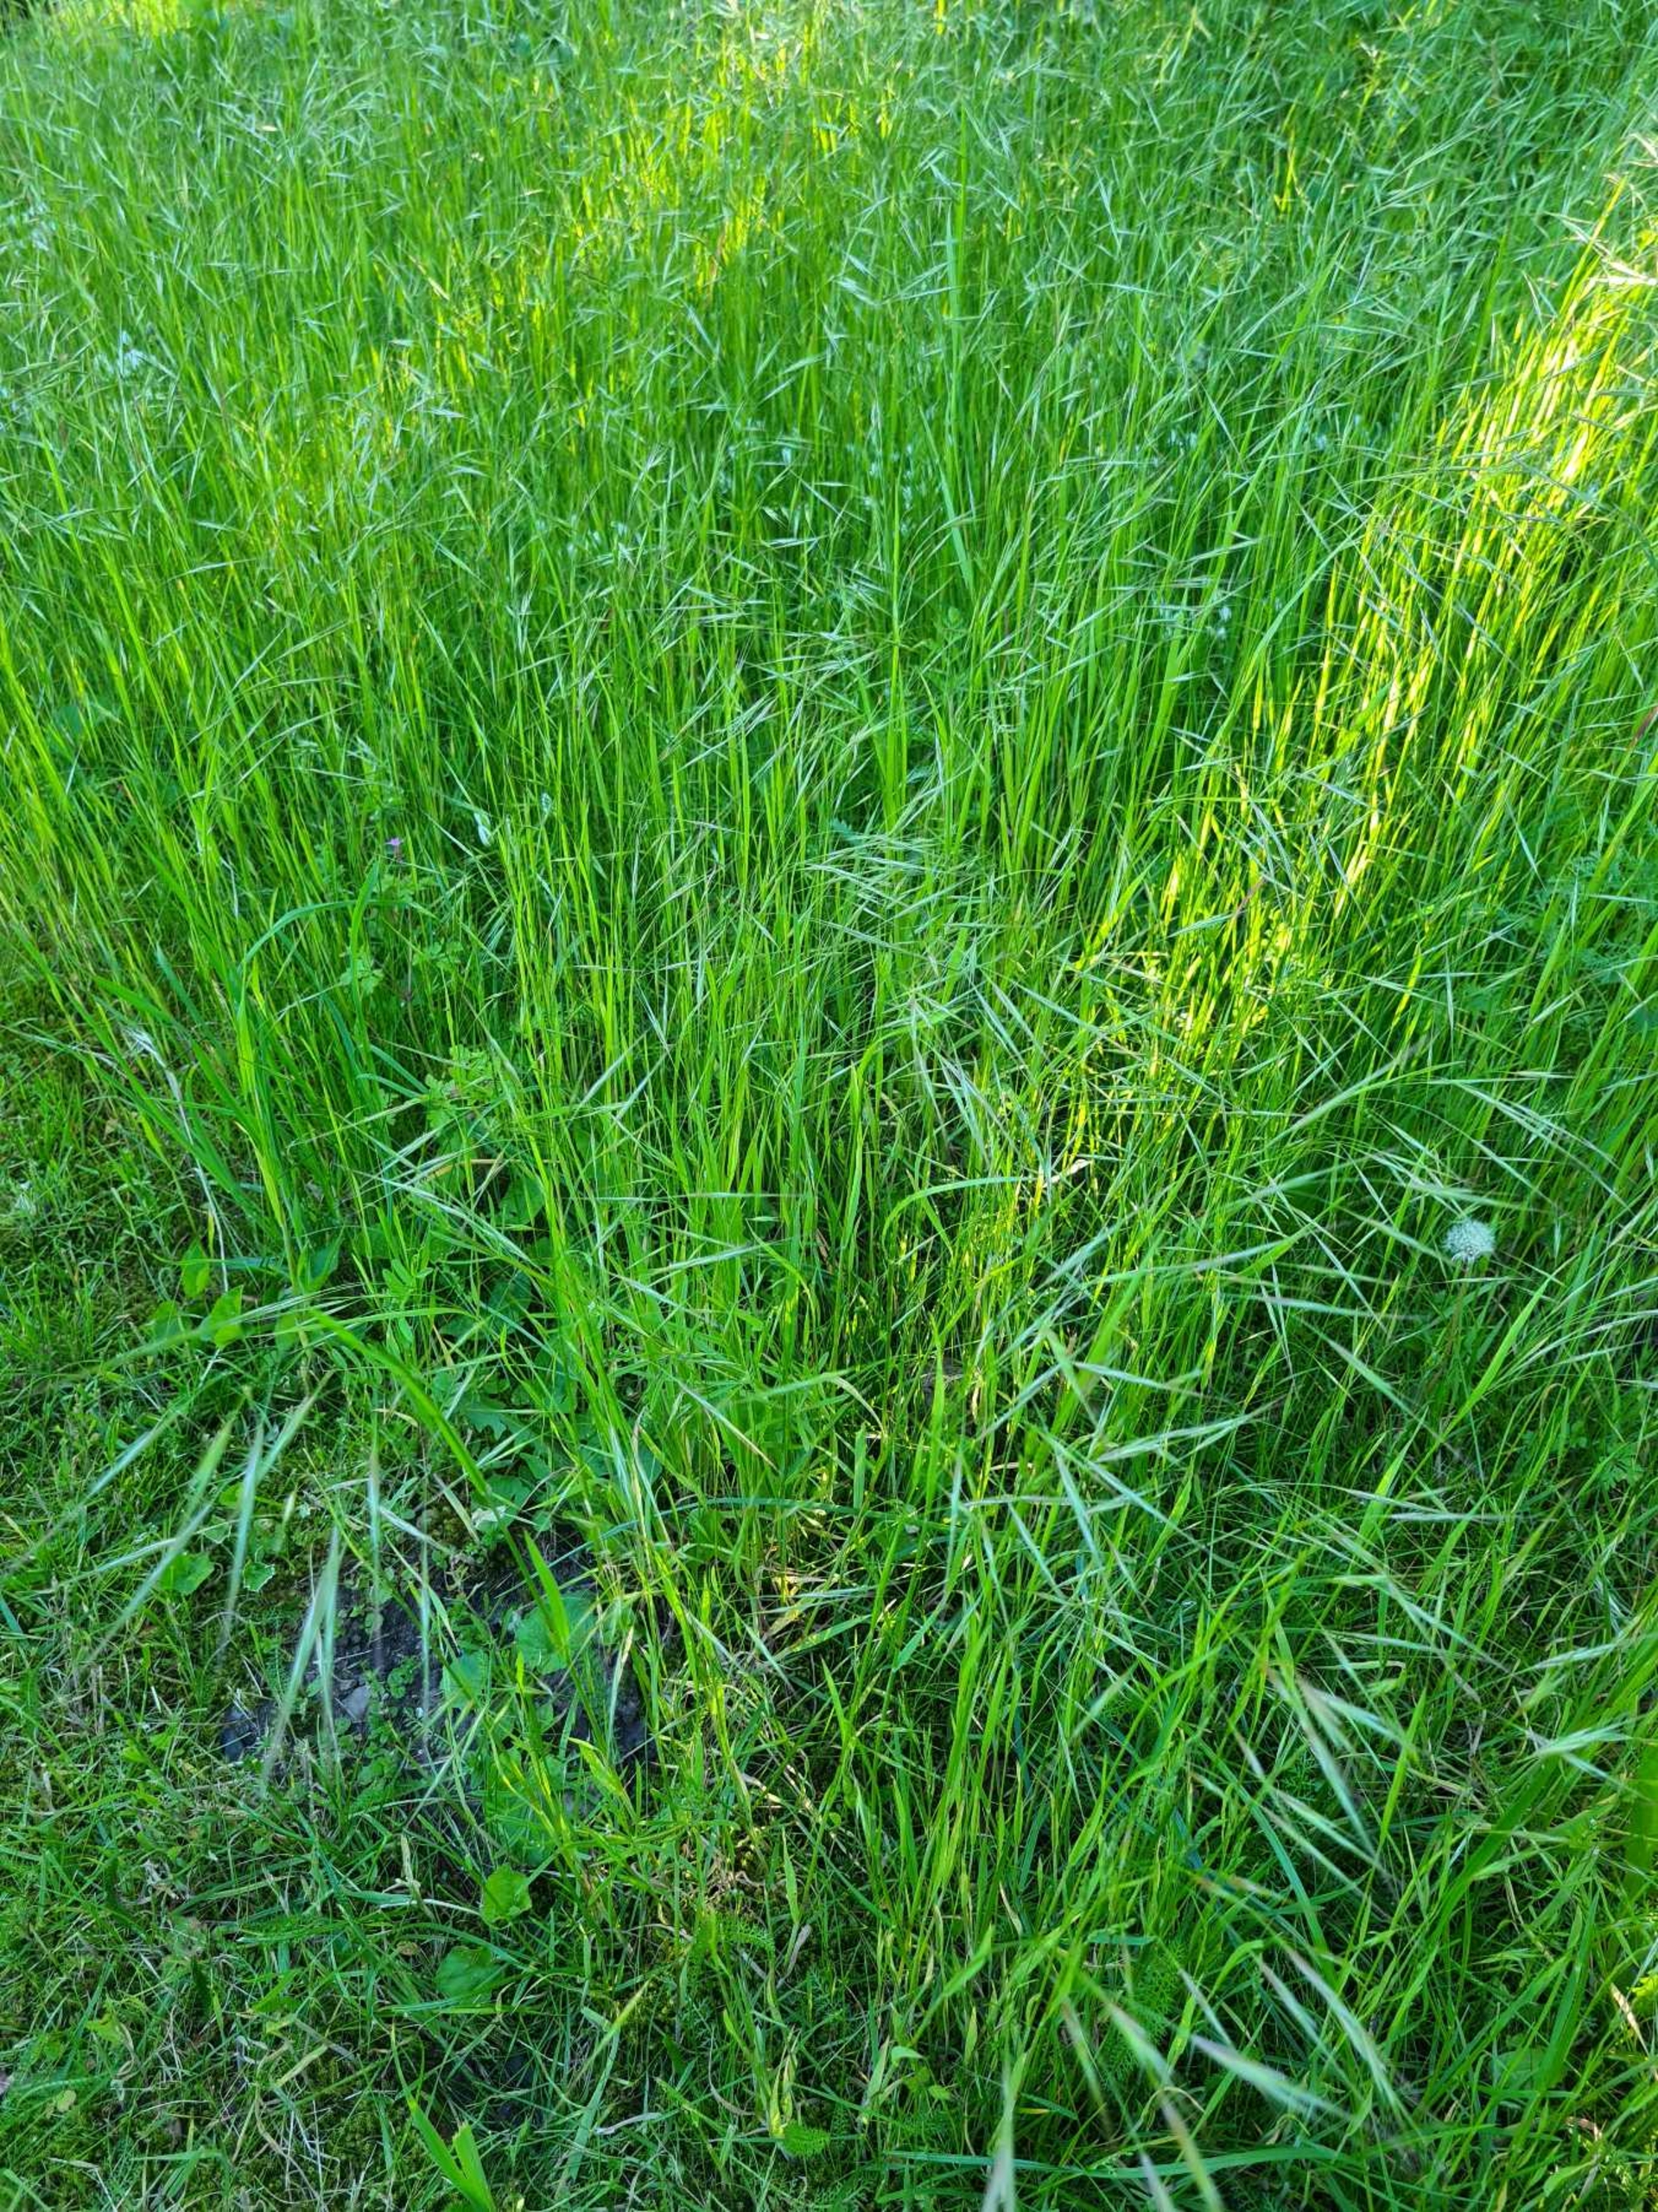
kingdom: Plantae
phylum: Tracheophyta
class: Liliopsida
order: Poales
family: Poaceae
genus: Bromus
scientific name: Bromus sterilis
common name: Gold hejre
